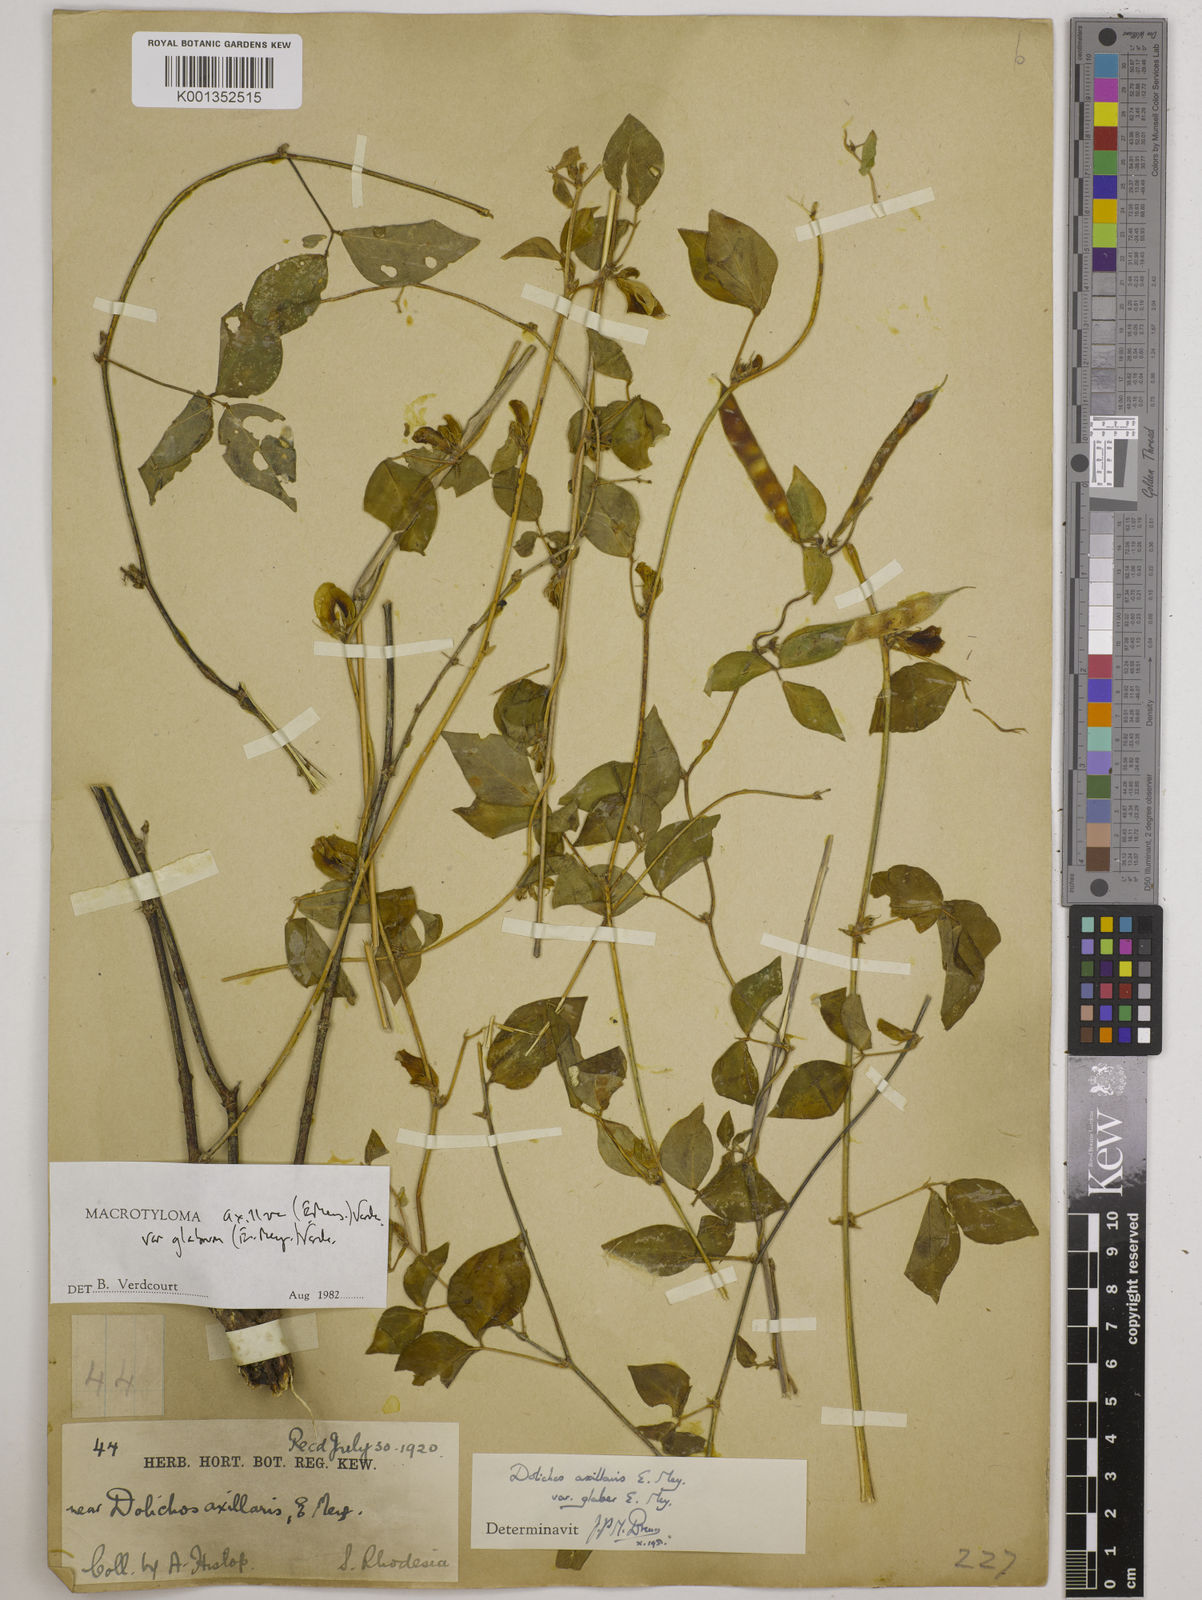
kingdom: Plantae
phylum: Tracheophyta
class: Magnoliopsida
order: Fabales
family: Fabaceae
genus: Macrotyloma
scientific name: Macrotyloma
